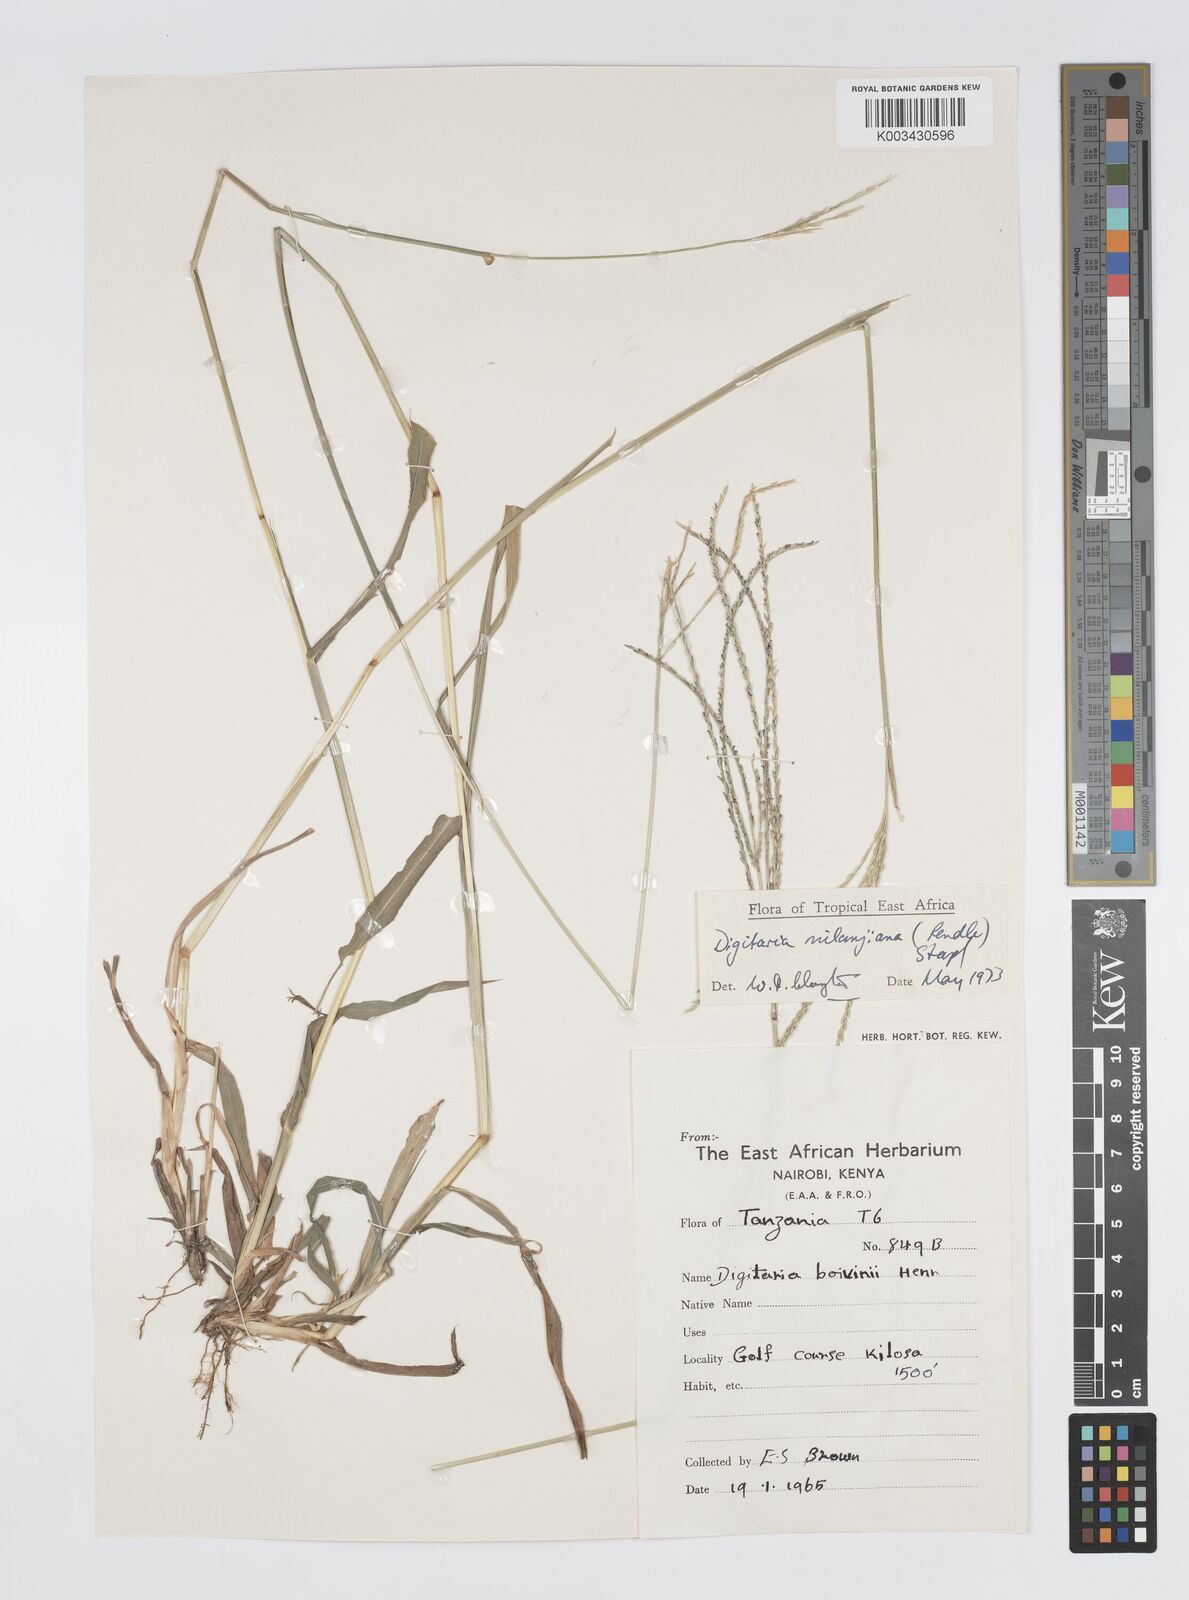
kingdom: Plantae
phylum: Tracheophyta
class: Liliopsida
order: Poales
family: Poaceae
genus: Digitaria
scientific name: Digitaria milanjiana
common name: Madagascar crabgrass
